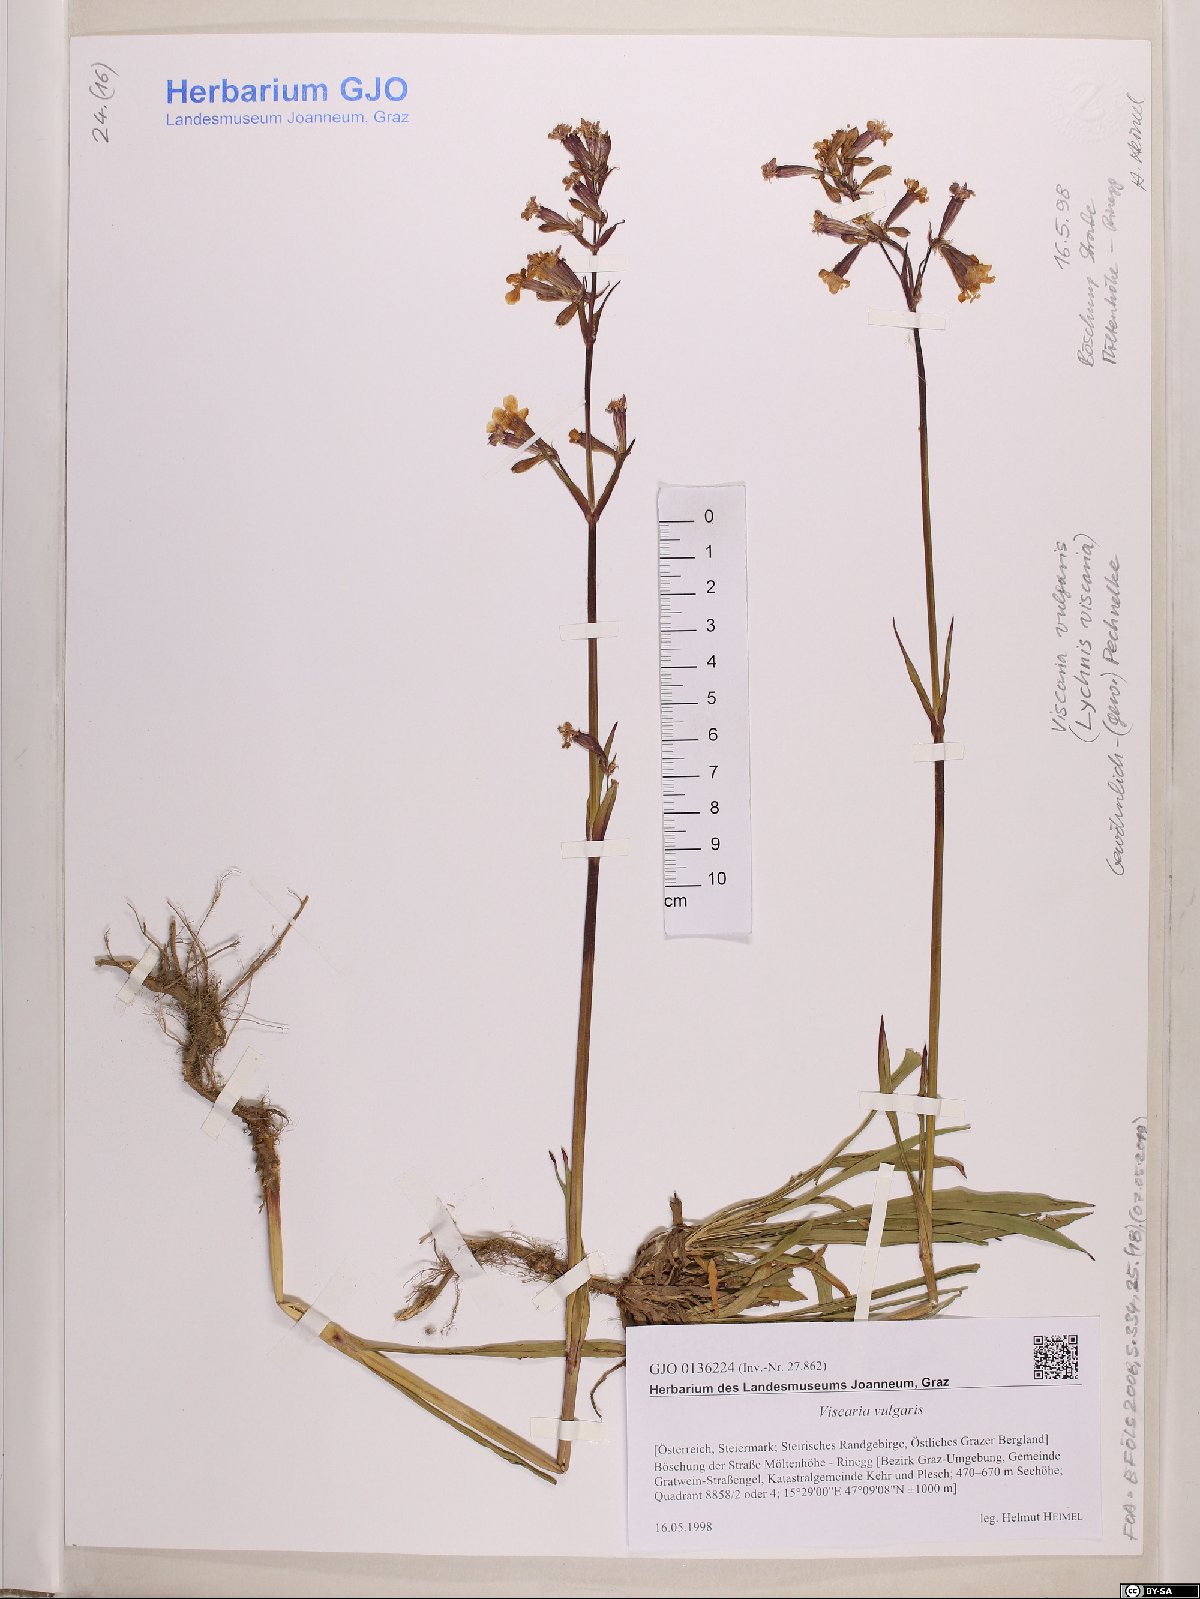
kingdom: Plantae
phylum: Tracheophyta
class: Magnoliopsida
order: Caryophyllales
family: Caryophyllaceae
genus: Viscaria
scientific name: Viscaria vulgaris
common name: Clammy campion
